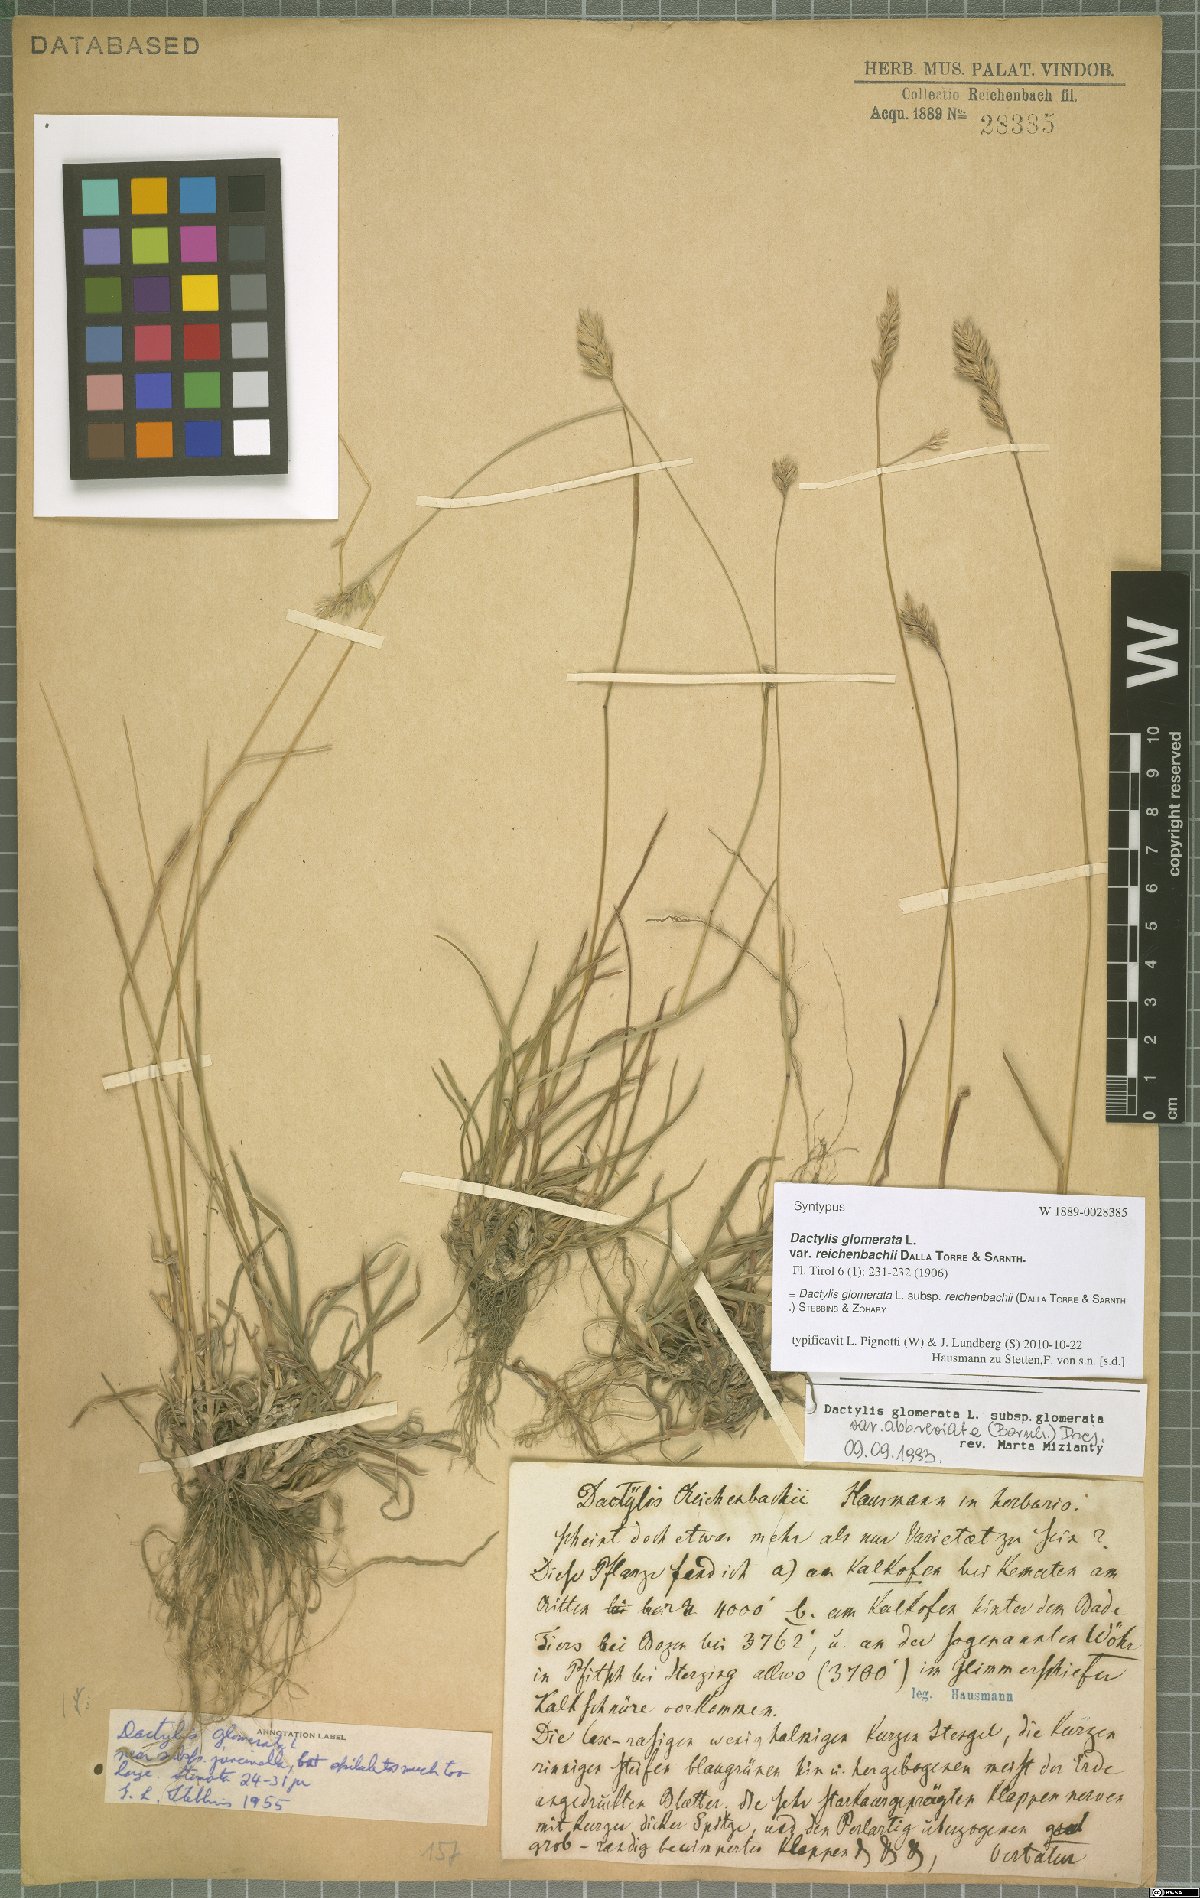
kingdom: Plantae
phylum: Tracheophyta
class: Liliopsida
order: Poales
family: Poaceae
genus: Dactylis
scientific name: Dactylis glomerata
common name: Orchardgrass
